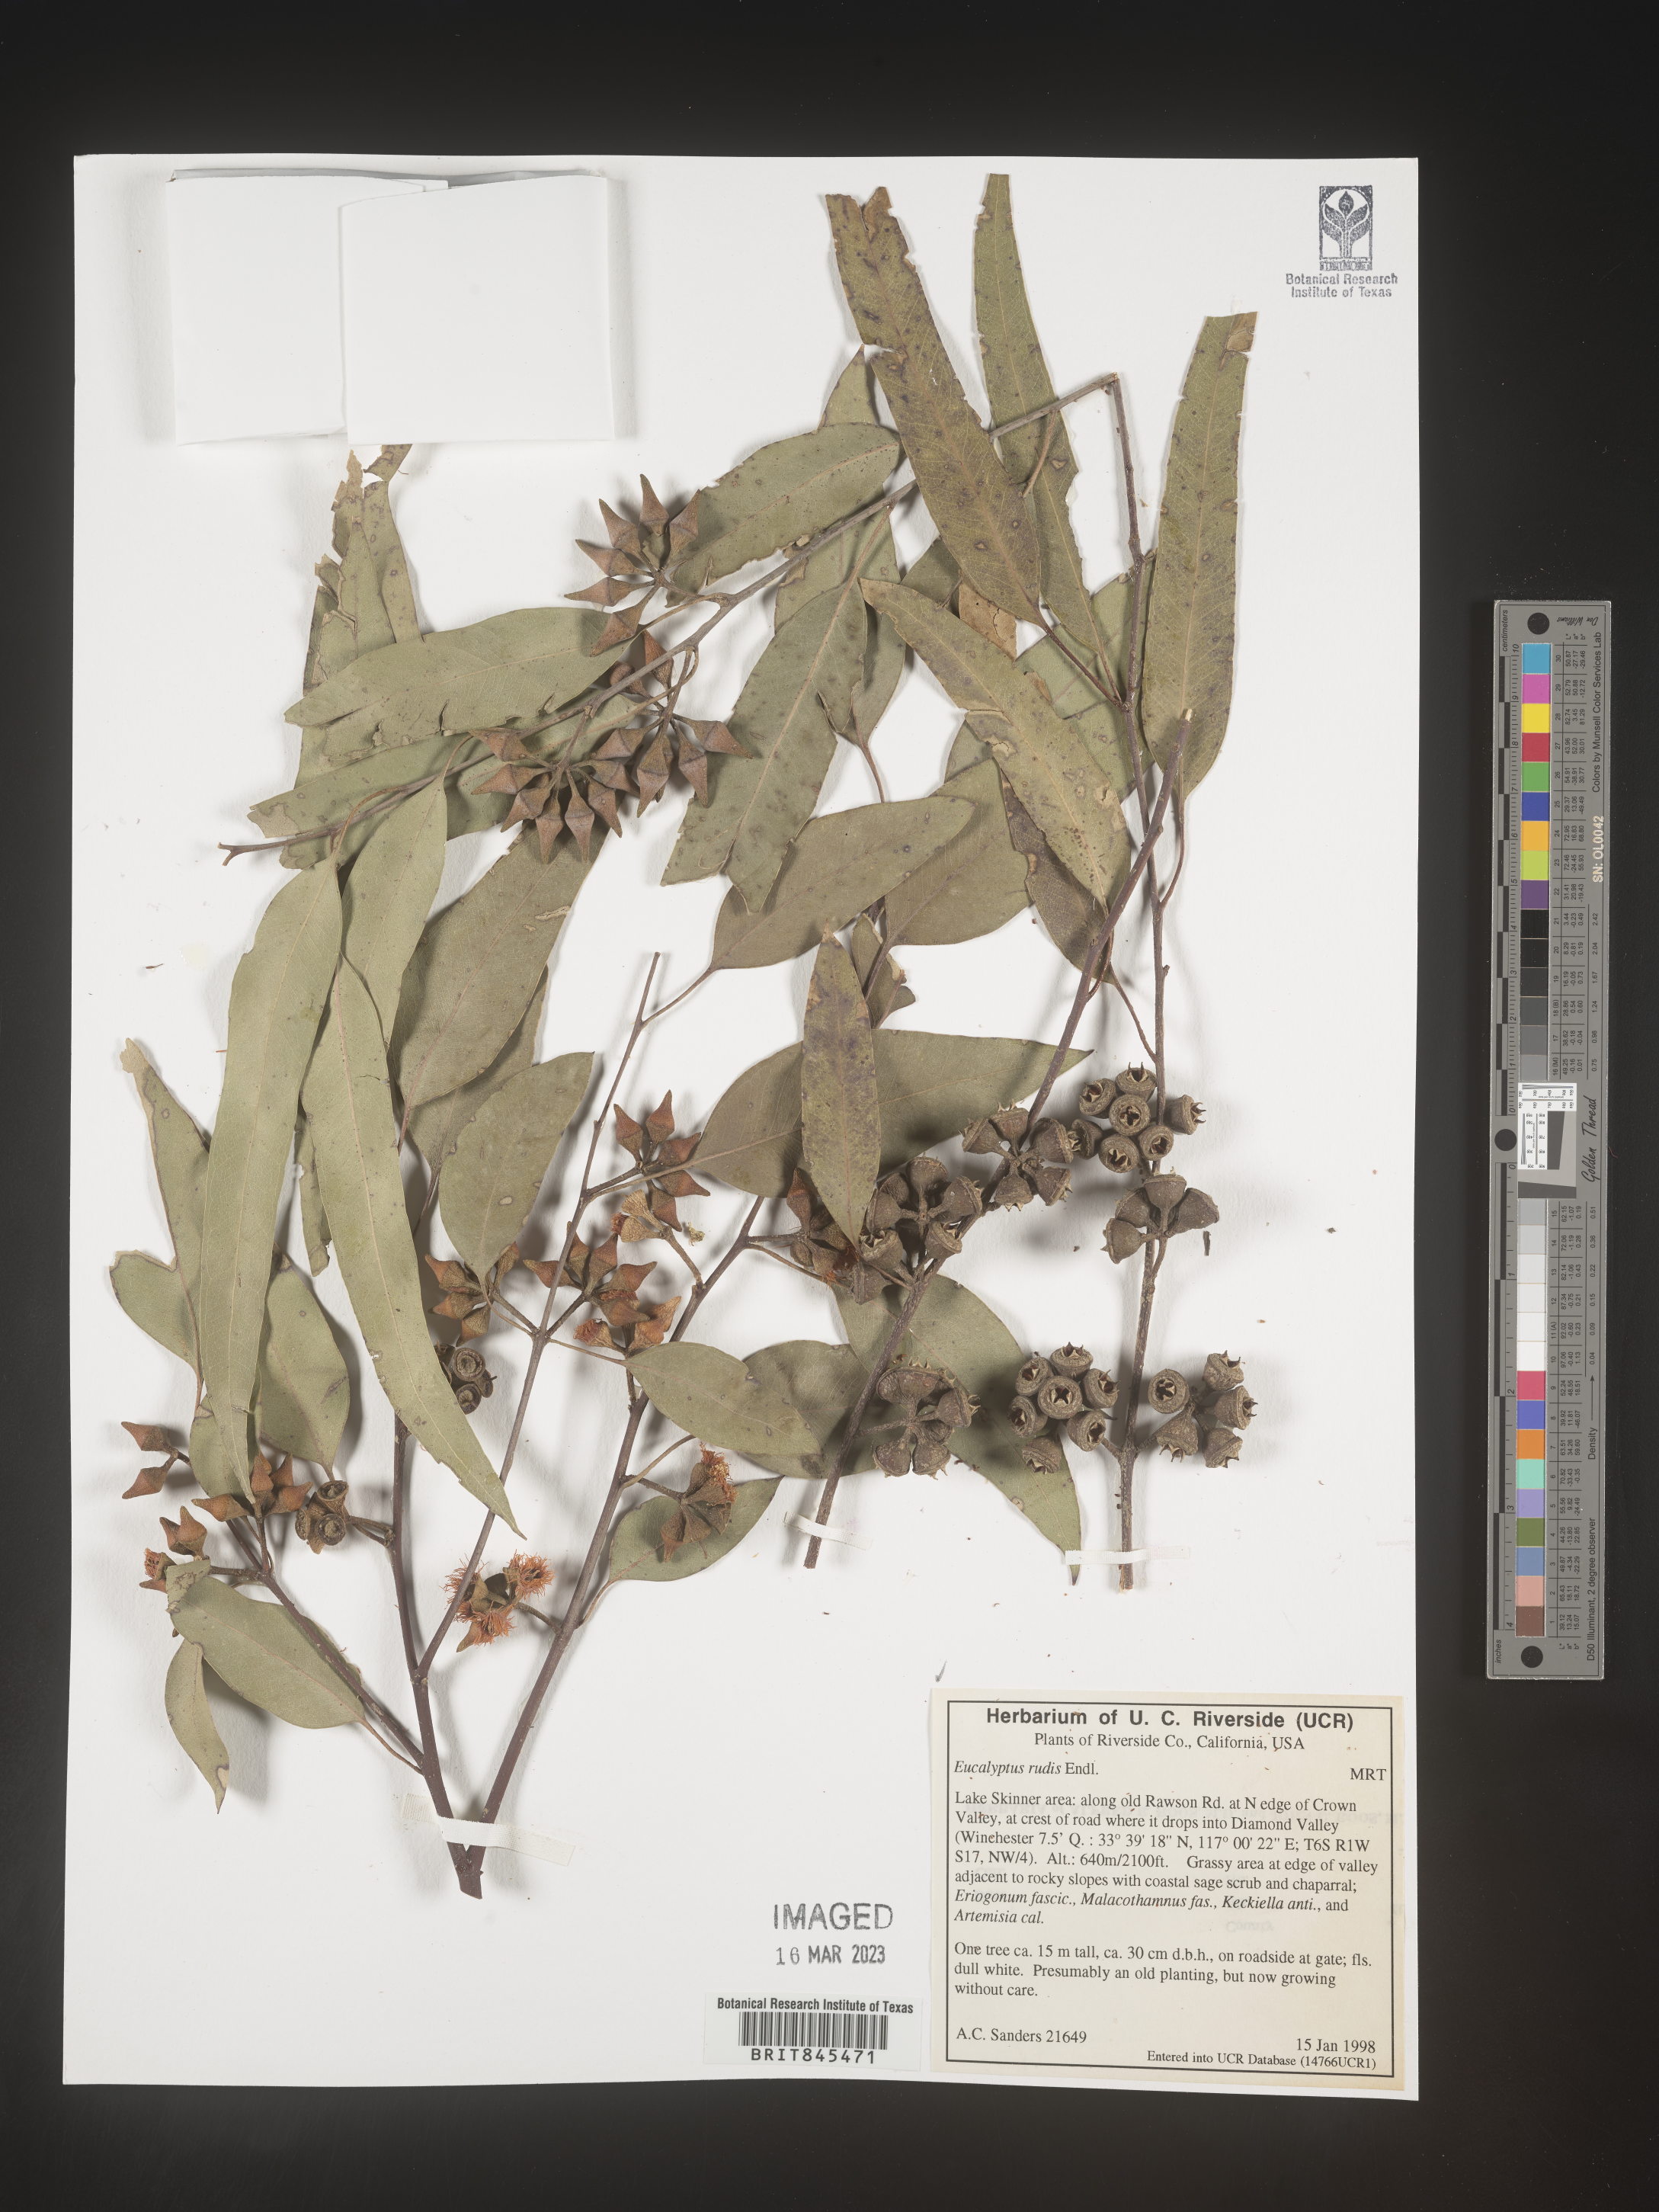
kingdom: Plantae
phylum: Tracheophyta
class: Magnoliopsida
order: Myrtales
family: Myrtaceae
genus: Eucalyptus
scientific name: Eucalyptus
